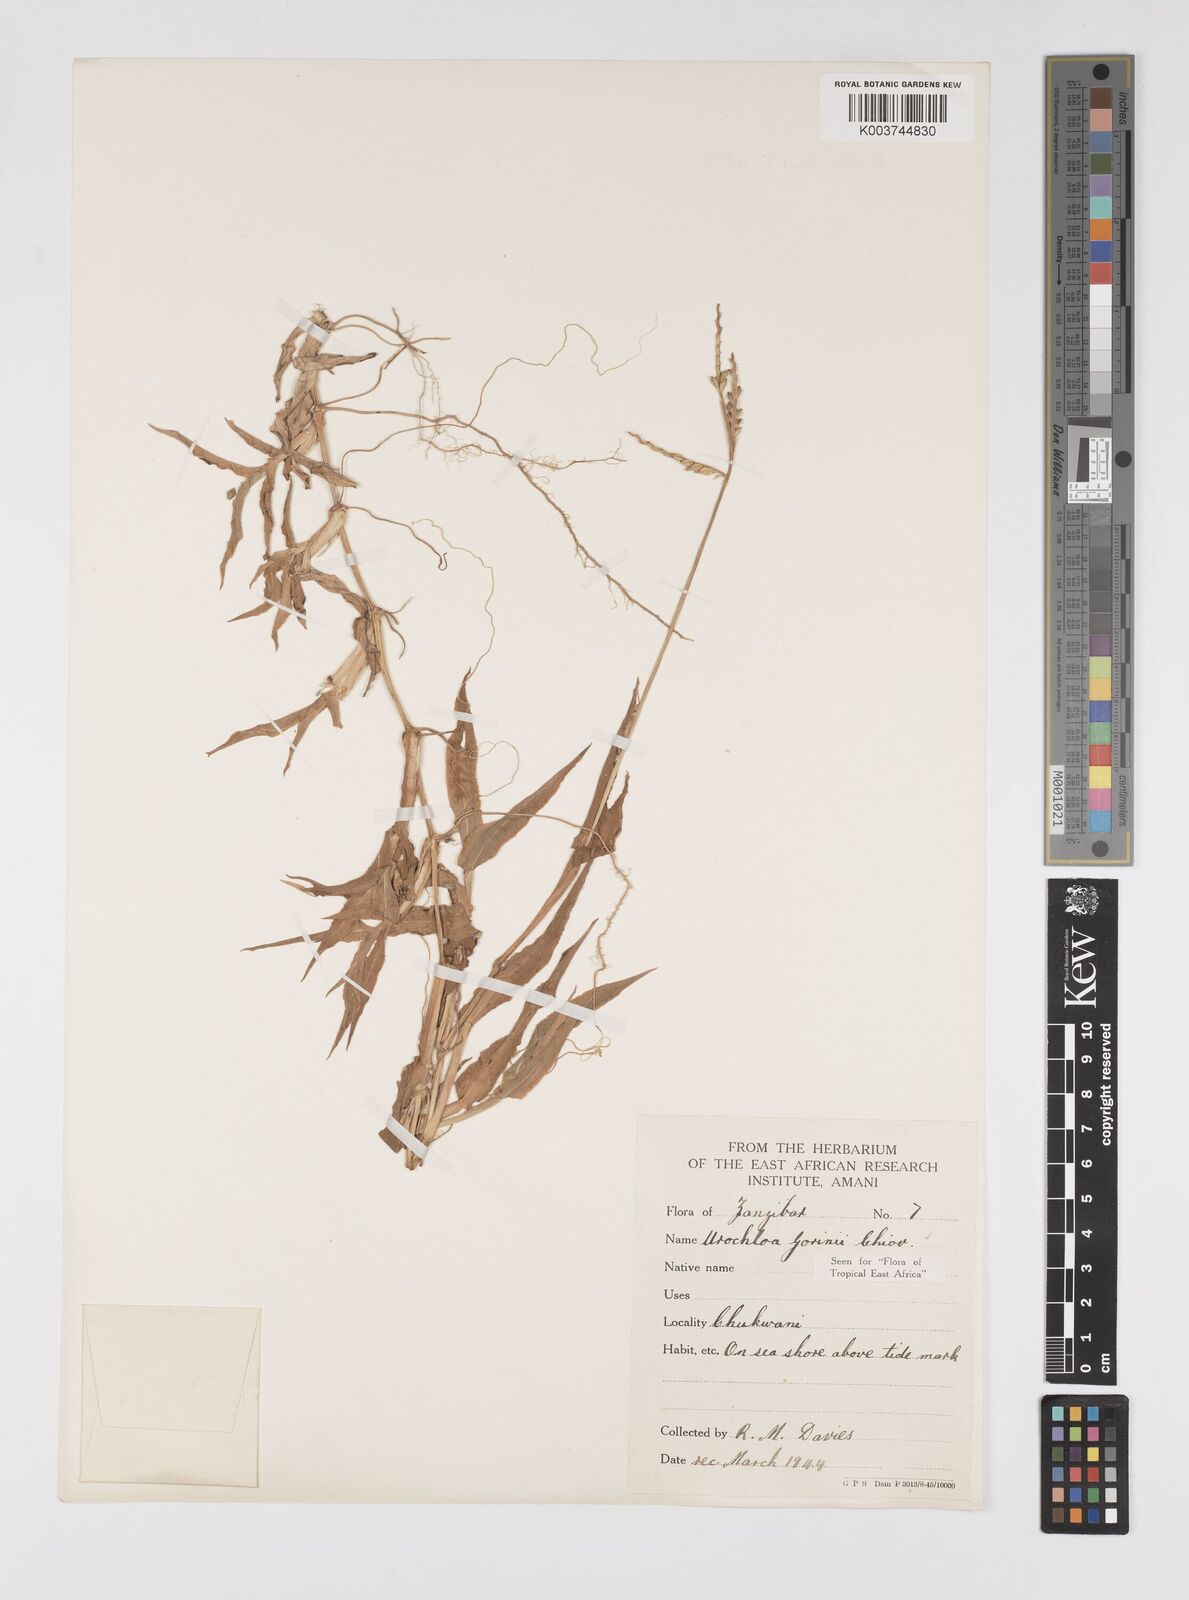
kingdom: Plantae
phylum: Tracheophyta
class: Liliopsida
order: Poales
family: Poaceae
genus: Urochloa
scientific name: Urochloa rudis
